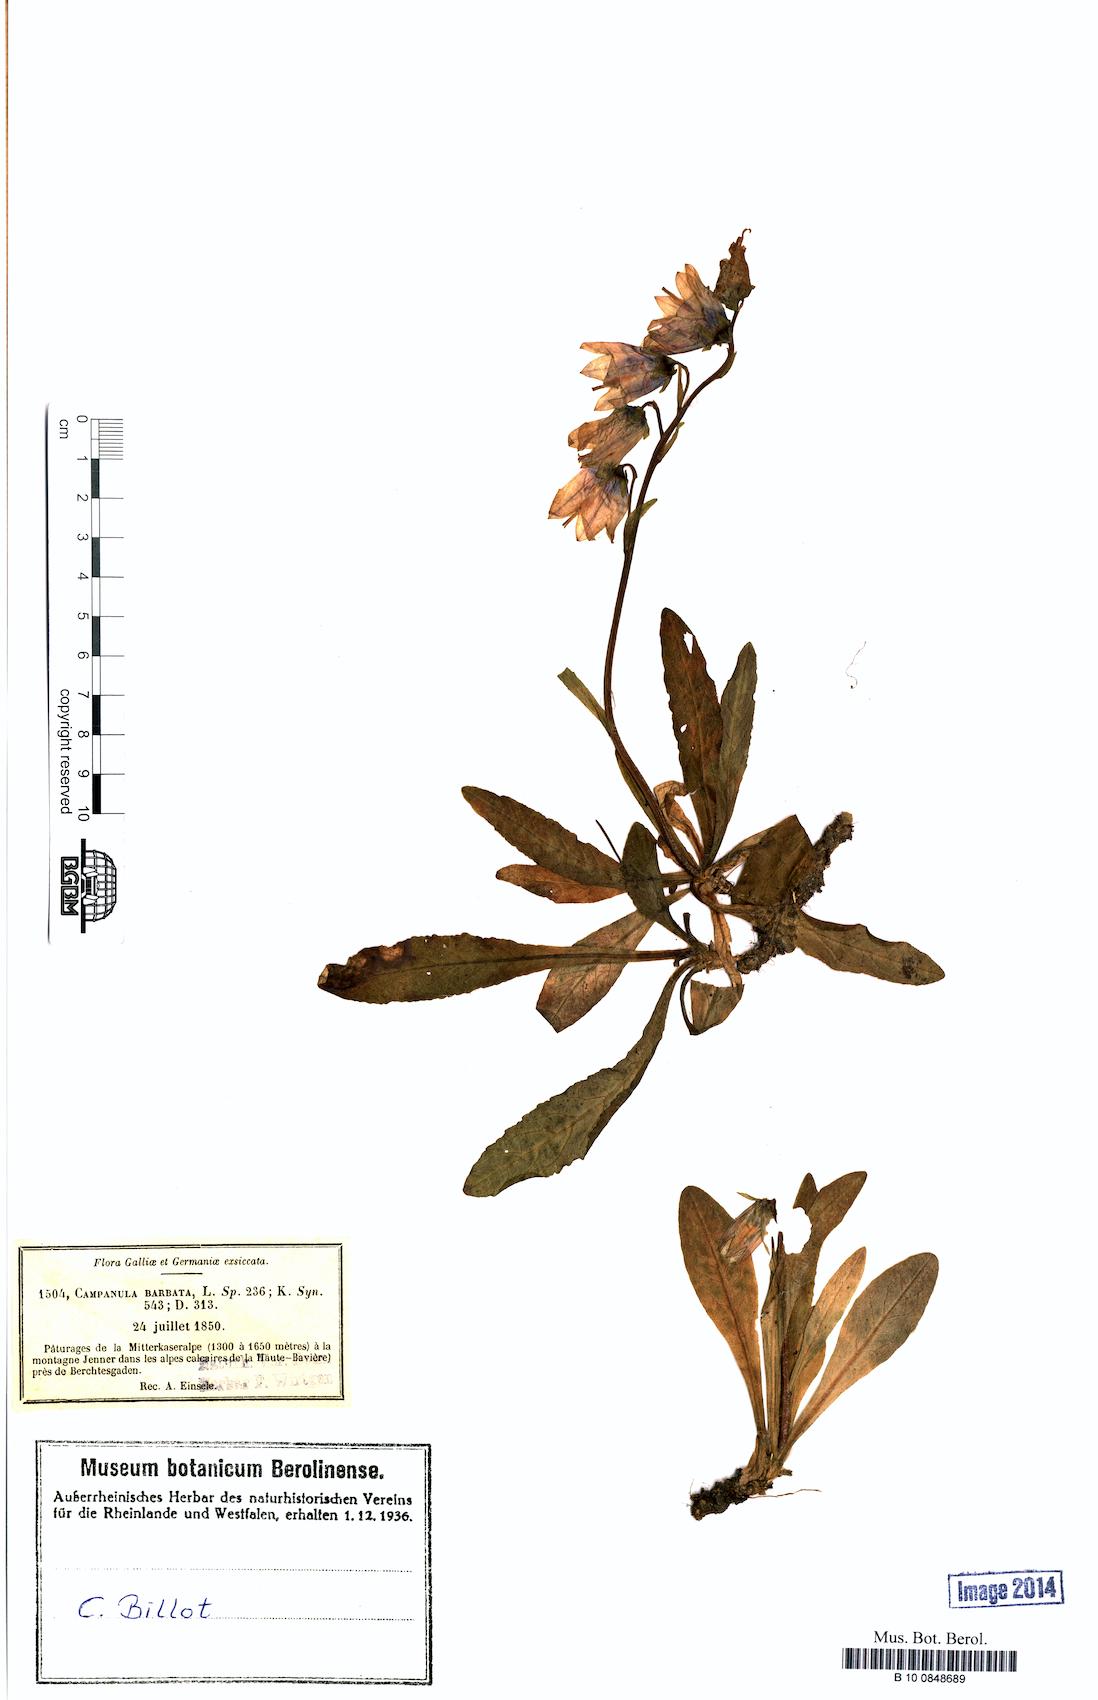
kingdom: Plantae
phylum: Tracheophyta
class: Magnoliopsida
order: Asterales
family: Campanulaceae
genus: Campanula
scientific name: Campanula barbata
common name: Bearded bellflower
